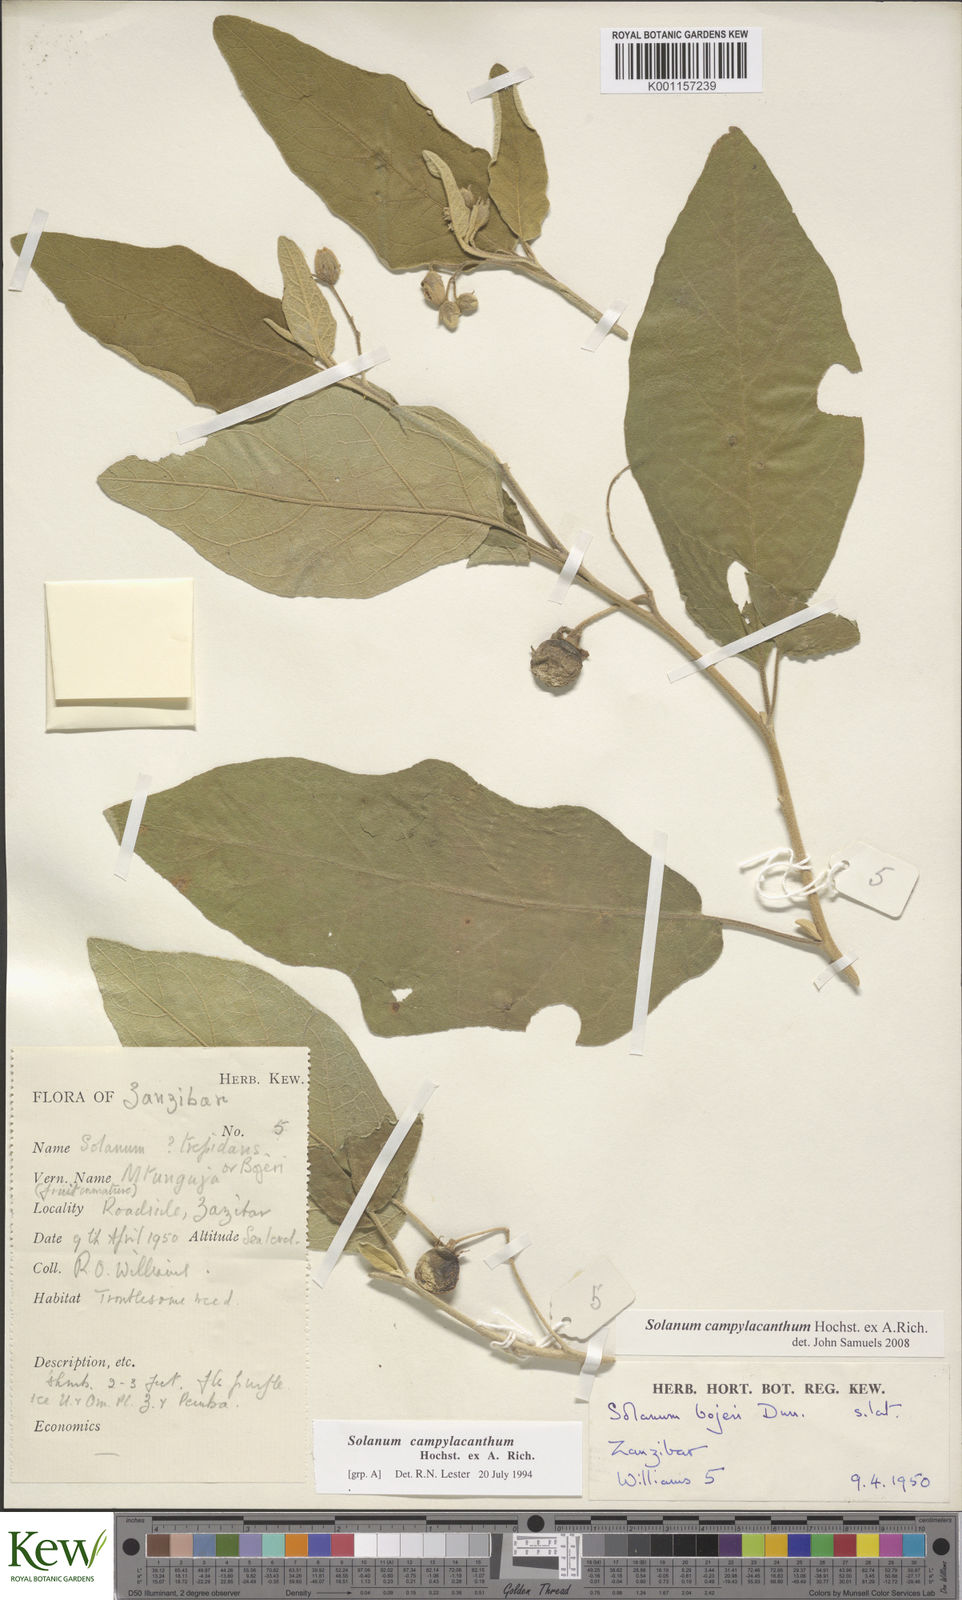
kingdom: Plantae
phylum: Tracheophyta
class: Magnoliopsida
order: Solanales
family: Solanaceae
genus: Solanum
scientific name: Solanum campylacanthum
